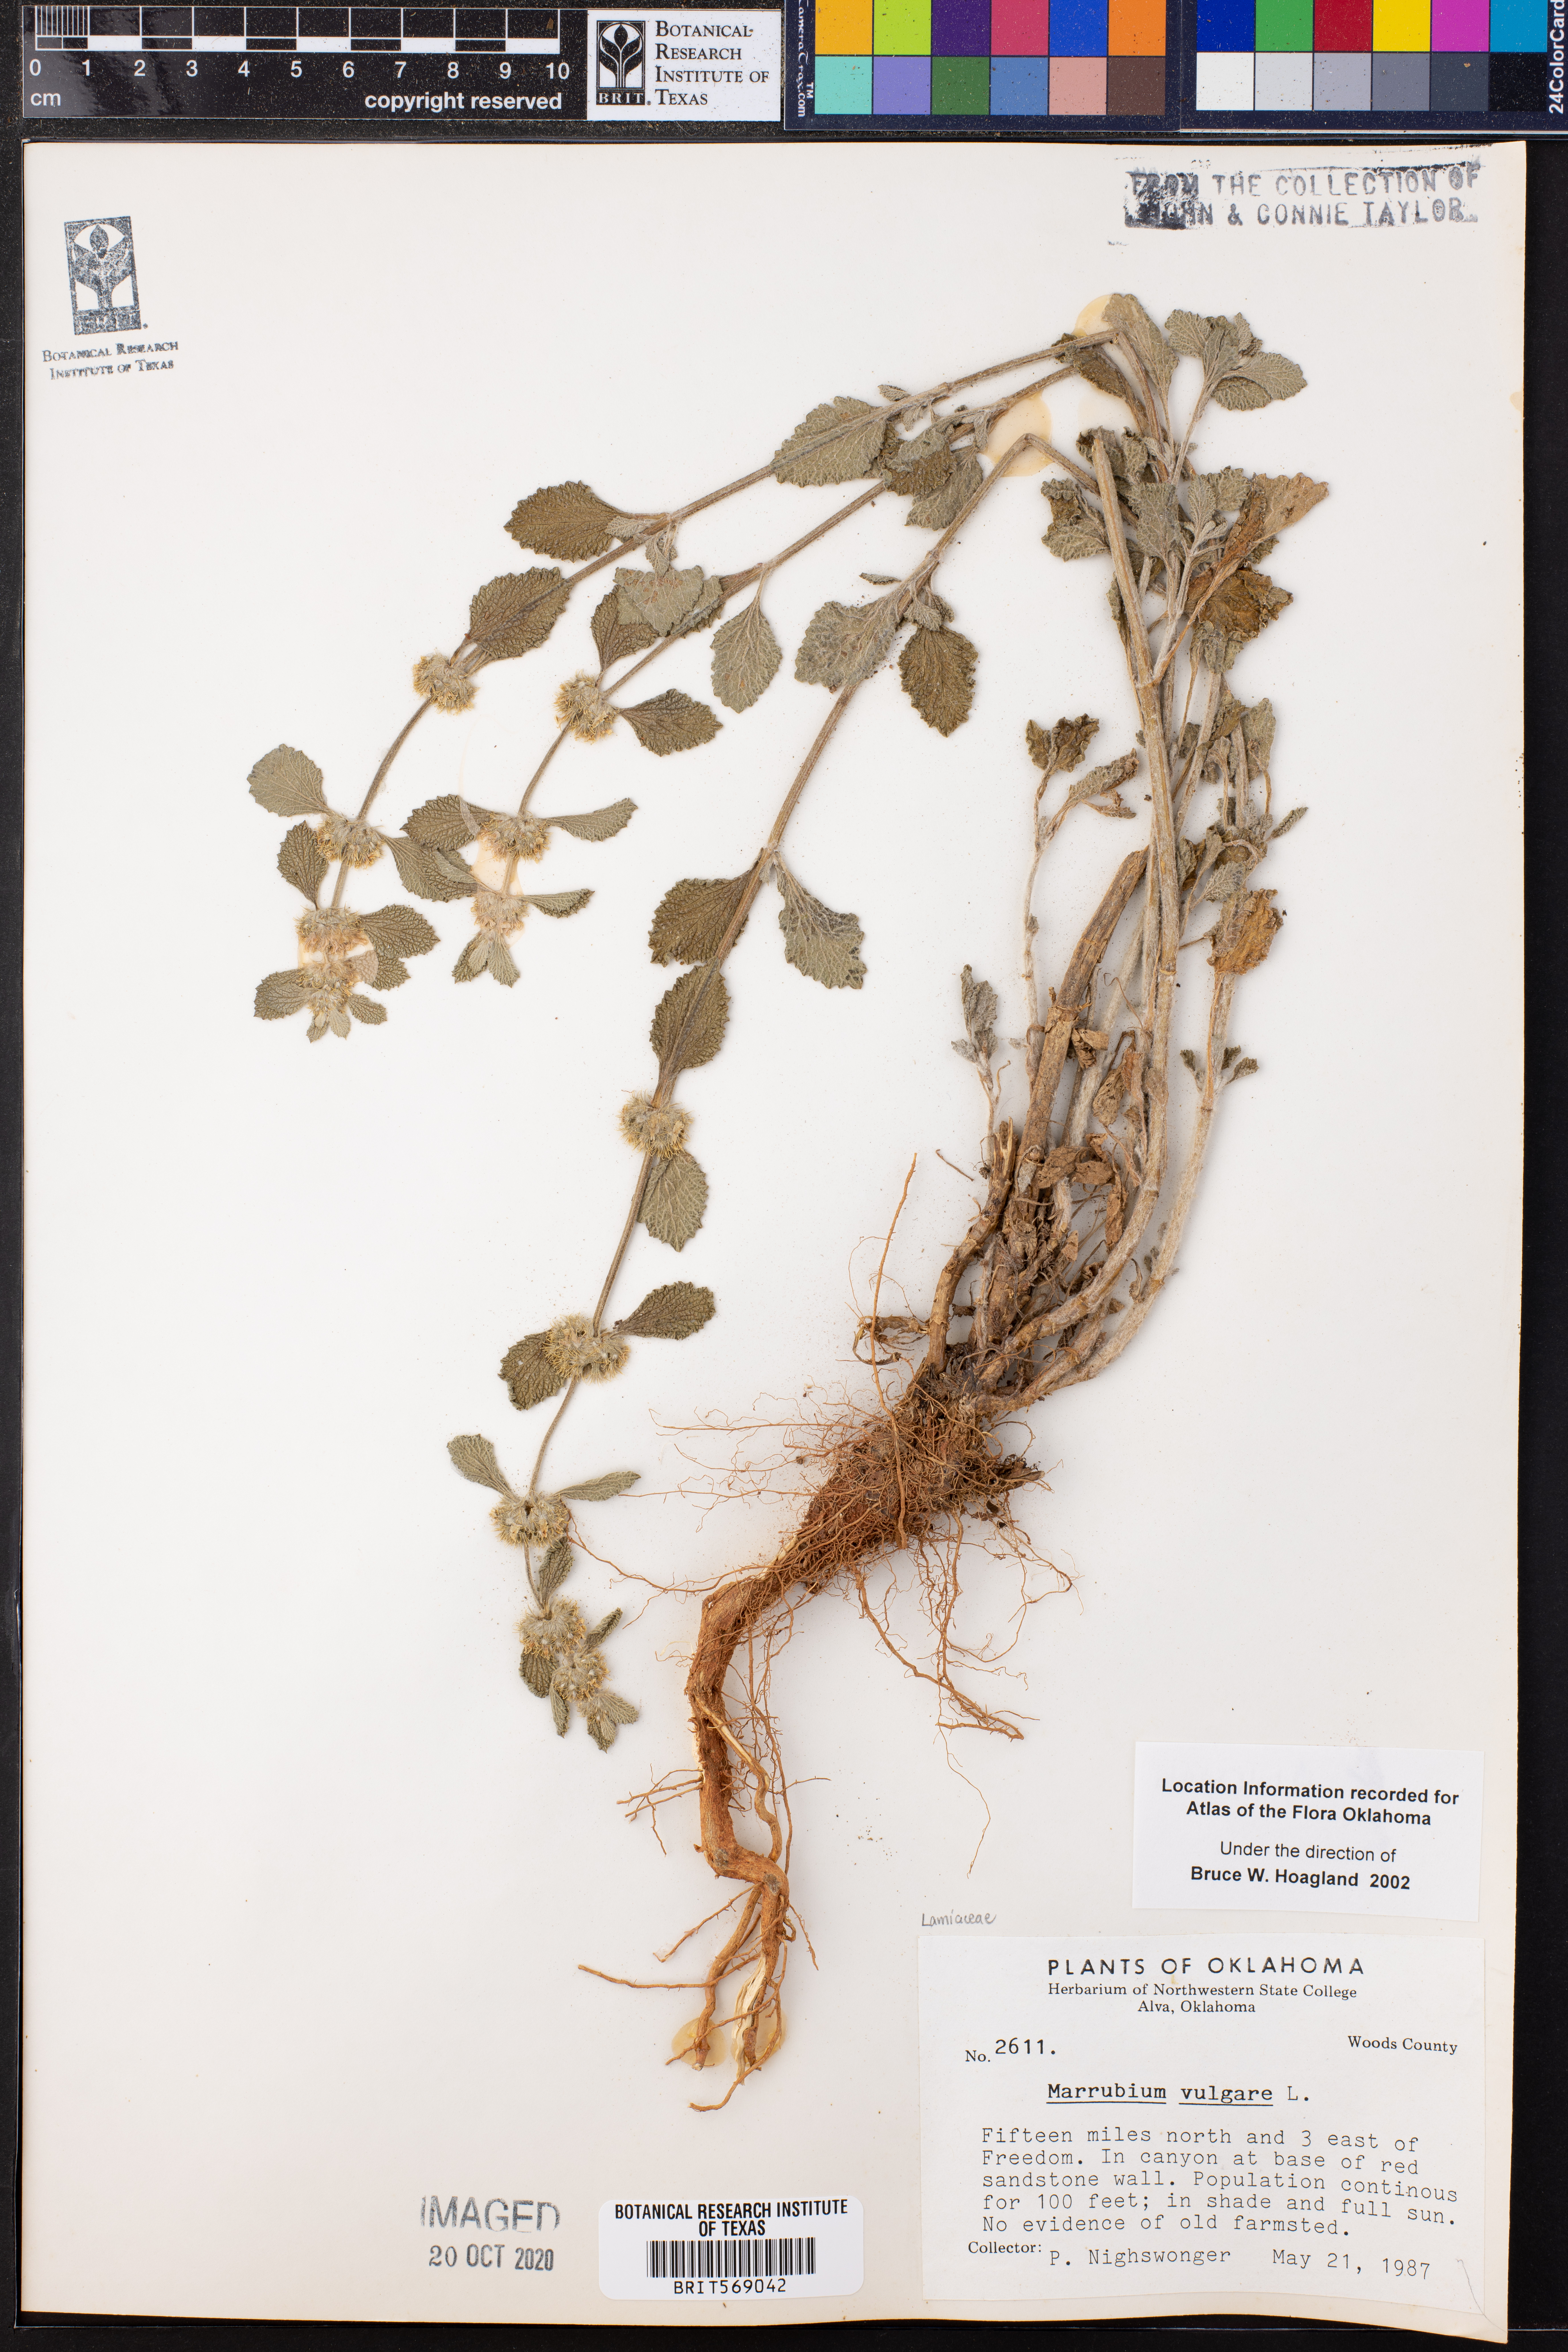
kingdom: Plantae
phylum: Tracheophyta
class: Magnoliopsida
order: Lamiales
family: Lamiaceae
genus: Marrubium
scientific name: Marrubium vulgare
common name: Horehound
